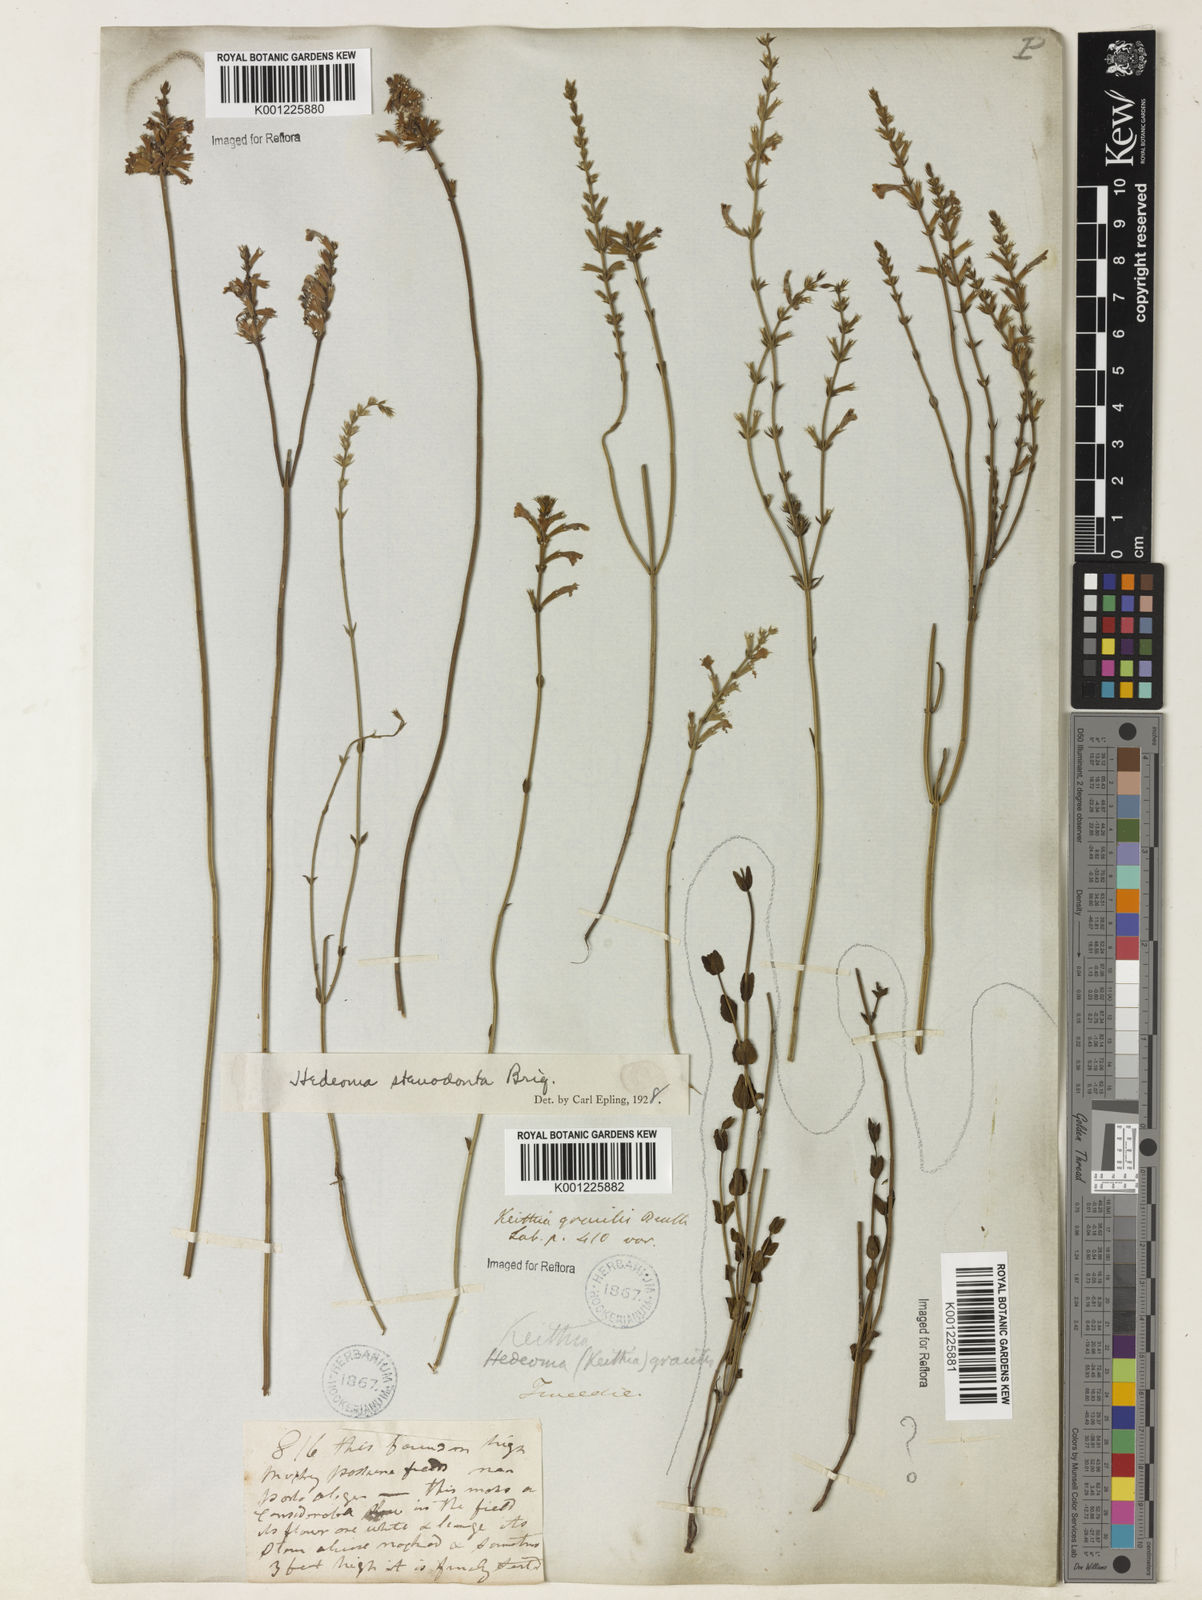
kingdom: Plantae
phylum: Tracheophyta
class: Magnoliopsida
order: Lamiales
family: Lamiaceae
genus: Rhabdocaulon
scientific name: Rhabdocaulon stenodontum
